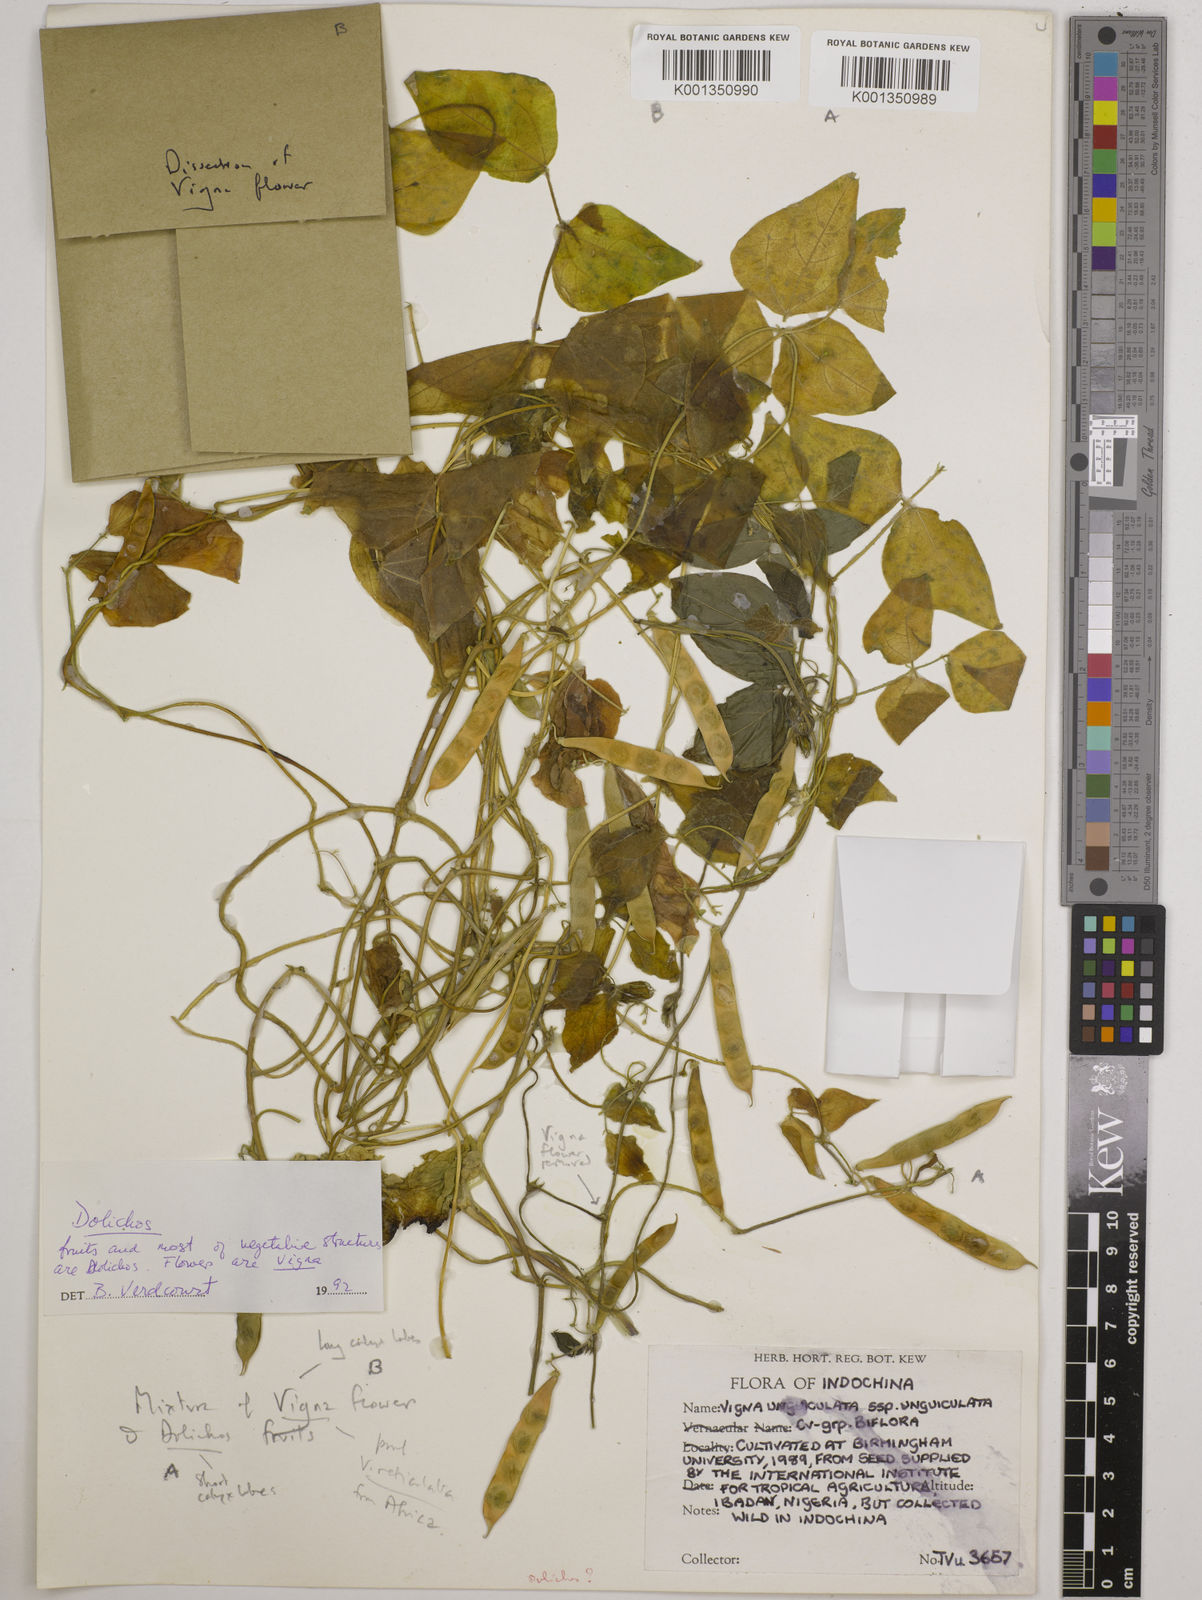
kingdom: Plantae
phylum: Tracheophyta
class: Magnoliopsida
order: Fabales
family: Fabaceae
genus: Dolichos
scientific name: Dolichos
